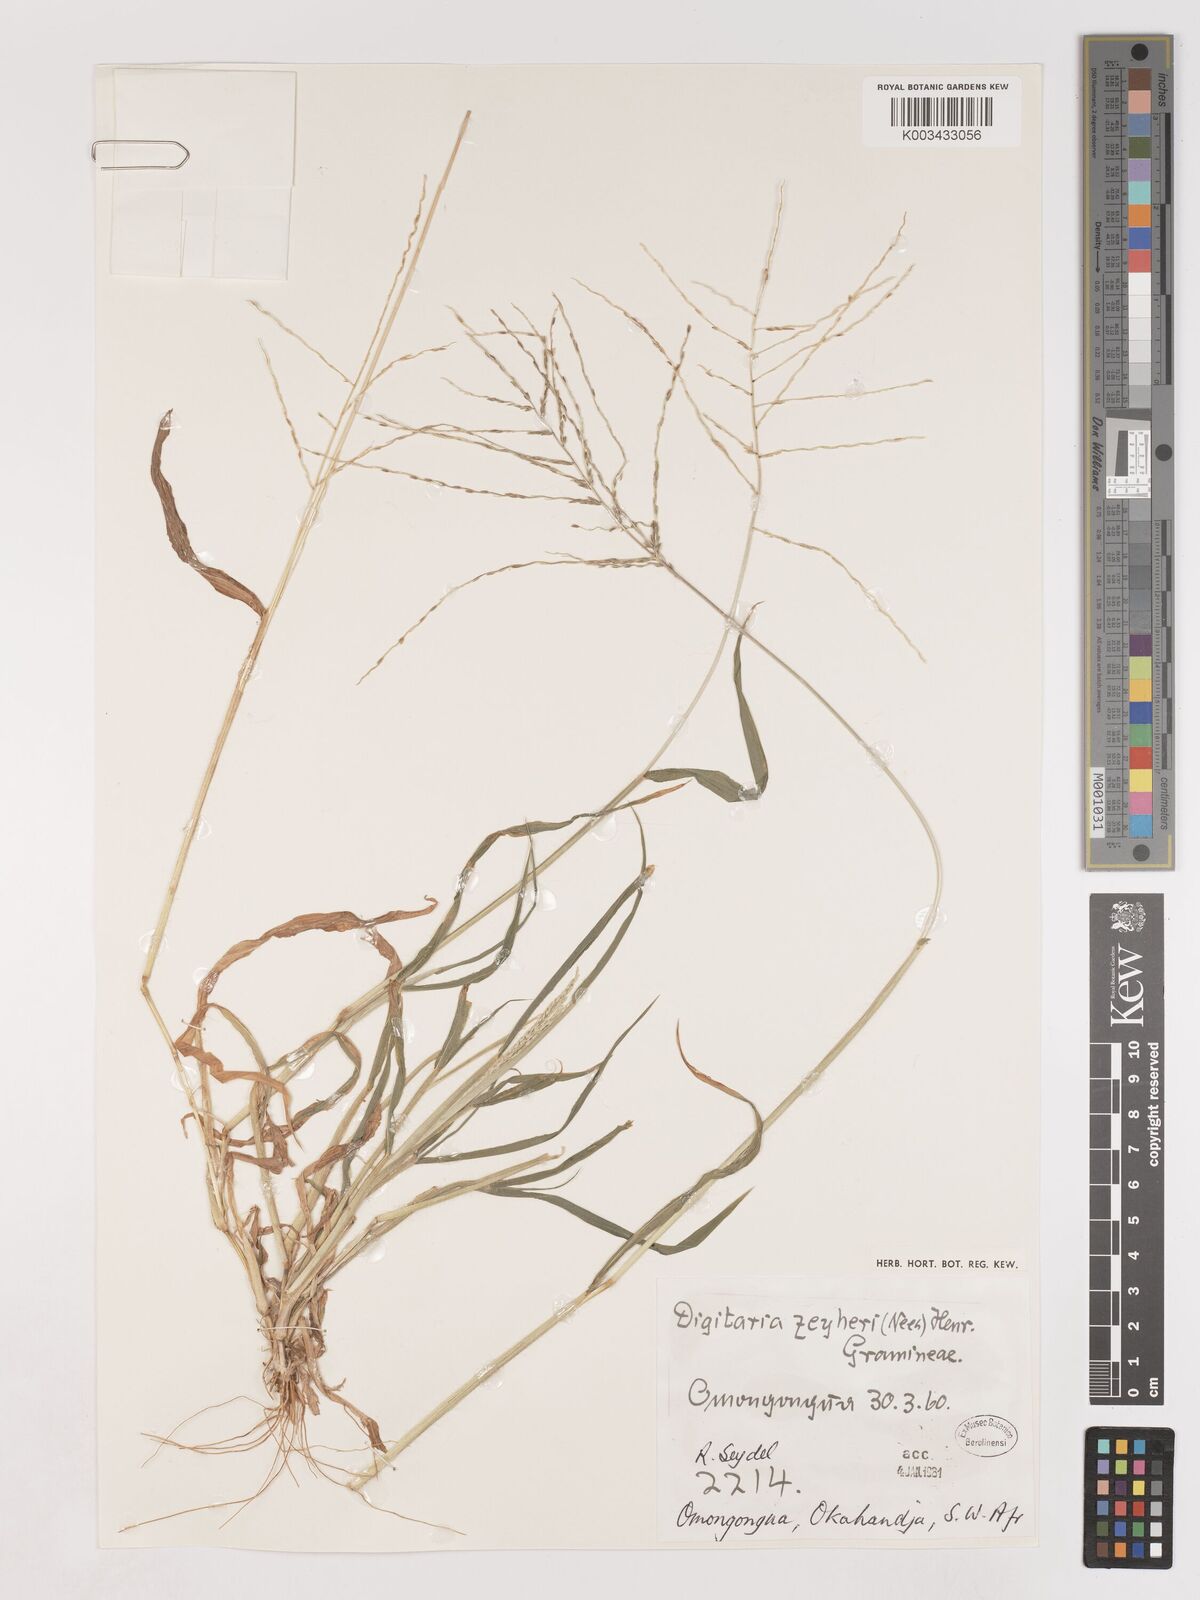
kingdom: Plantae
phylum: Tracheophyta
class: Liliopsida
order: Poales
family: Poaceae
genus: Digitaria
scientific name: Digitaria velutina
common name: Long-plume finger grass
